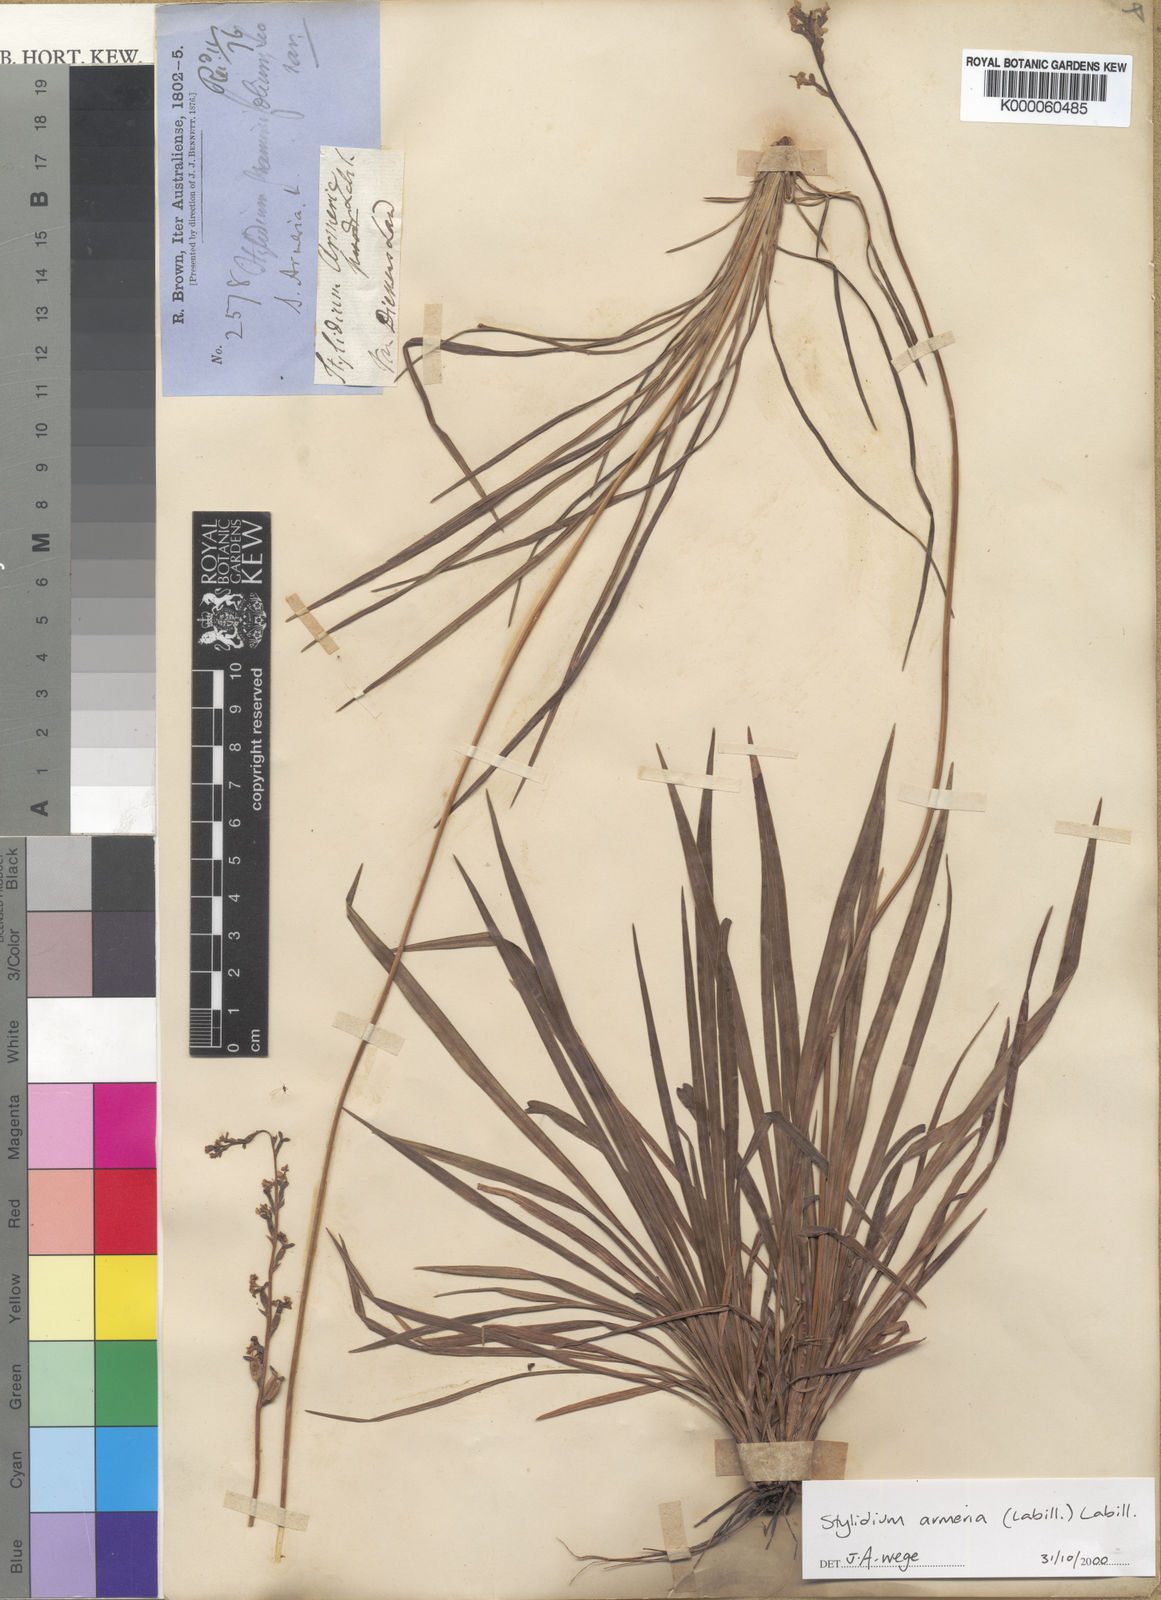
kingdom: Plantae
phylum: Tracheophyta
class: Magnoliopsida
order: Asterales
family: Stylidiaceae
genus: Stylidium
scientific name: Stylidium armeria
